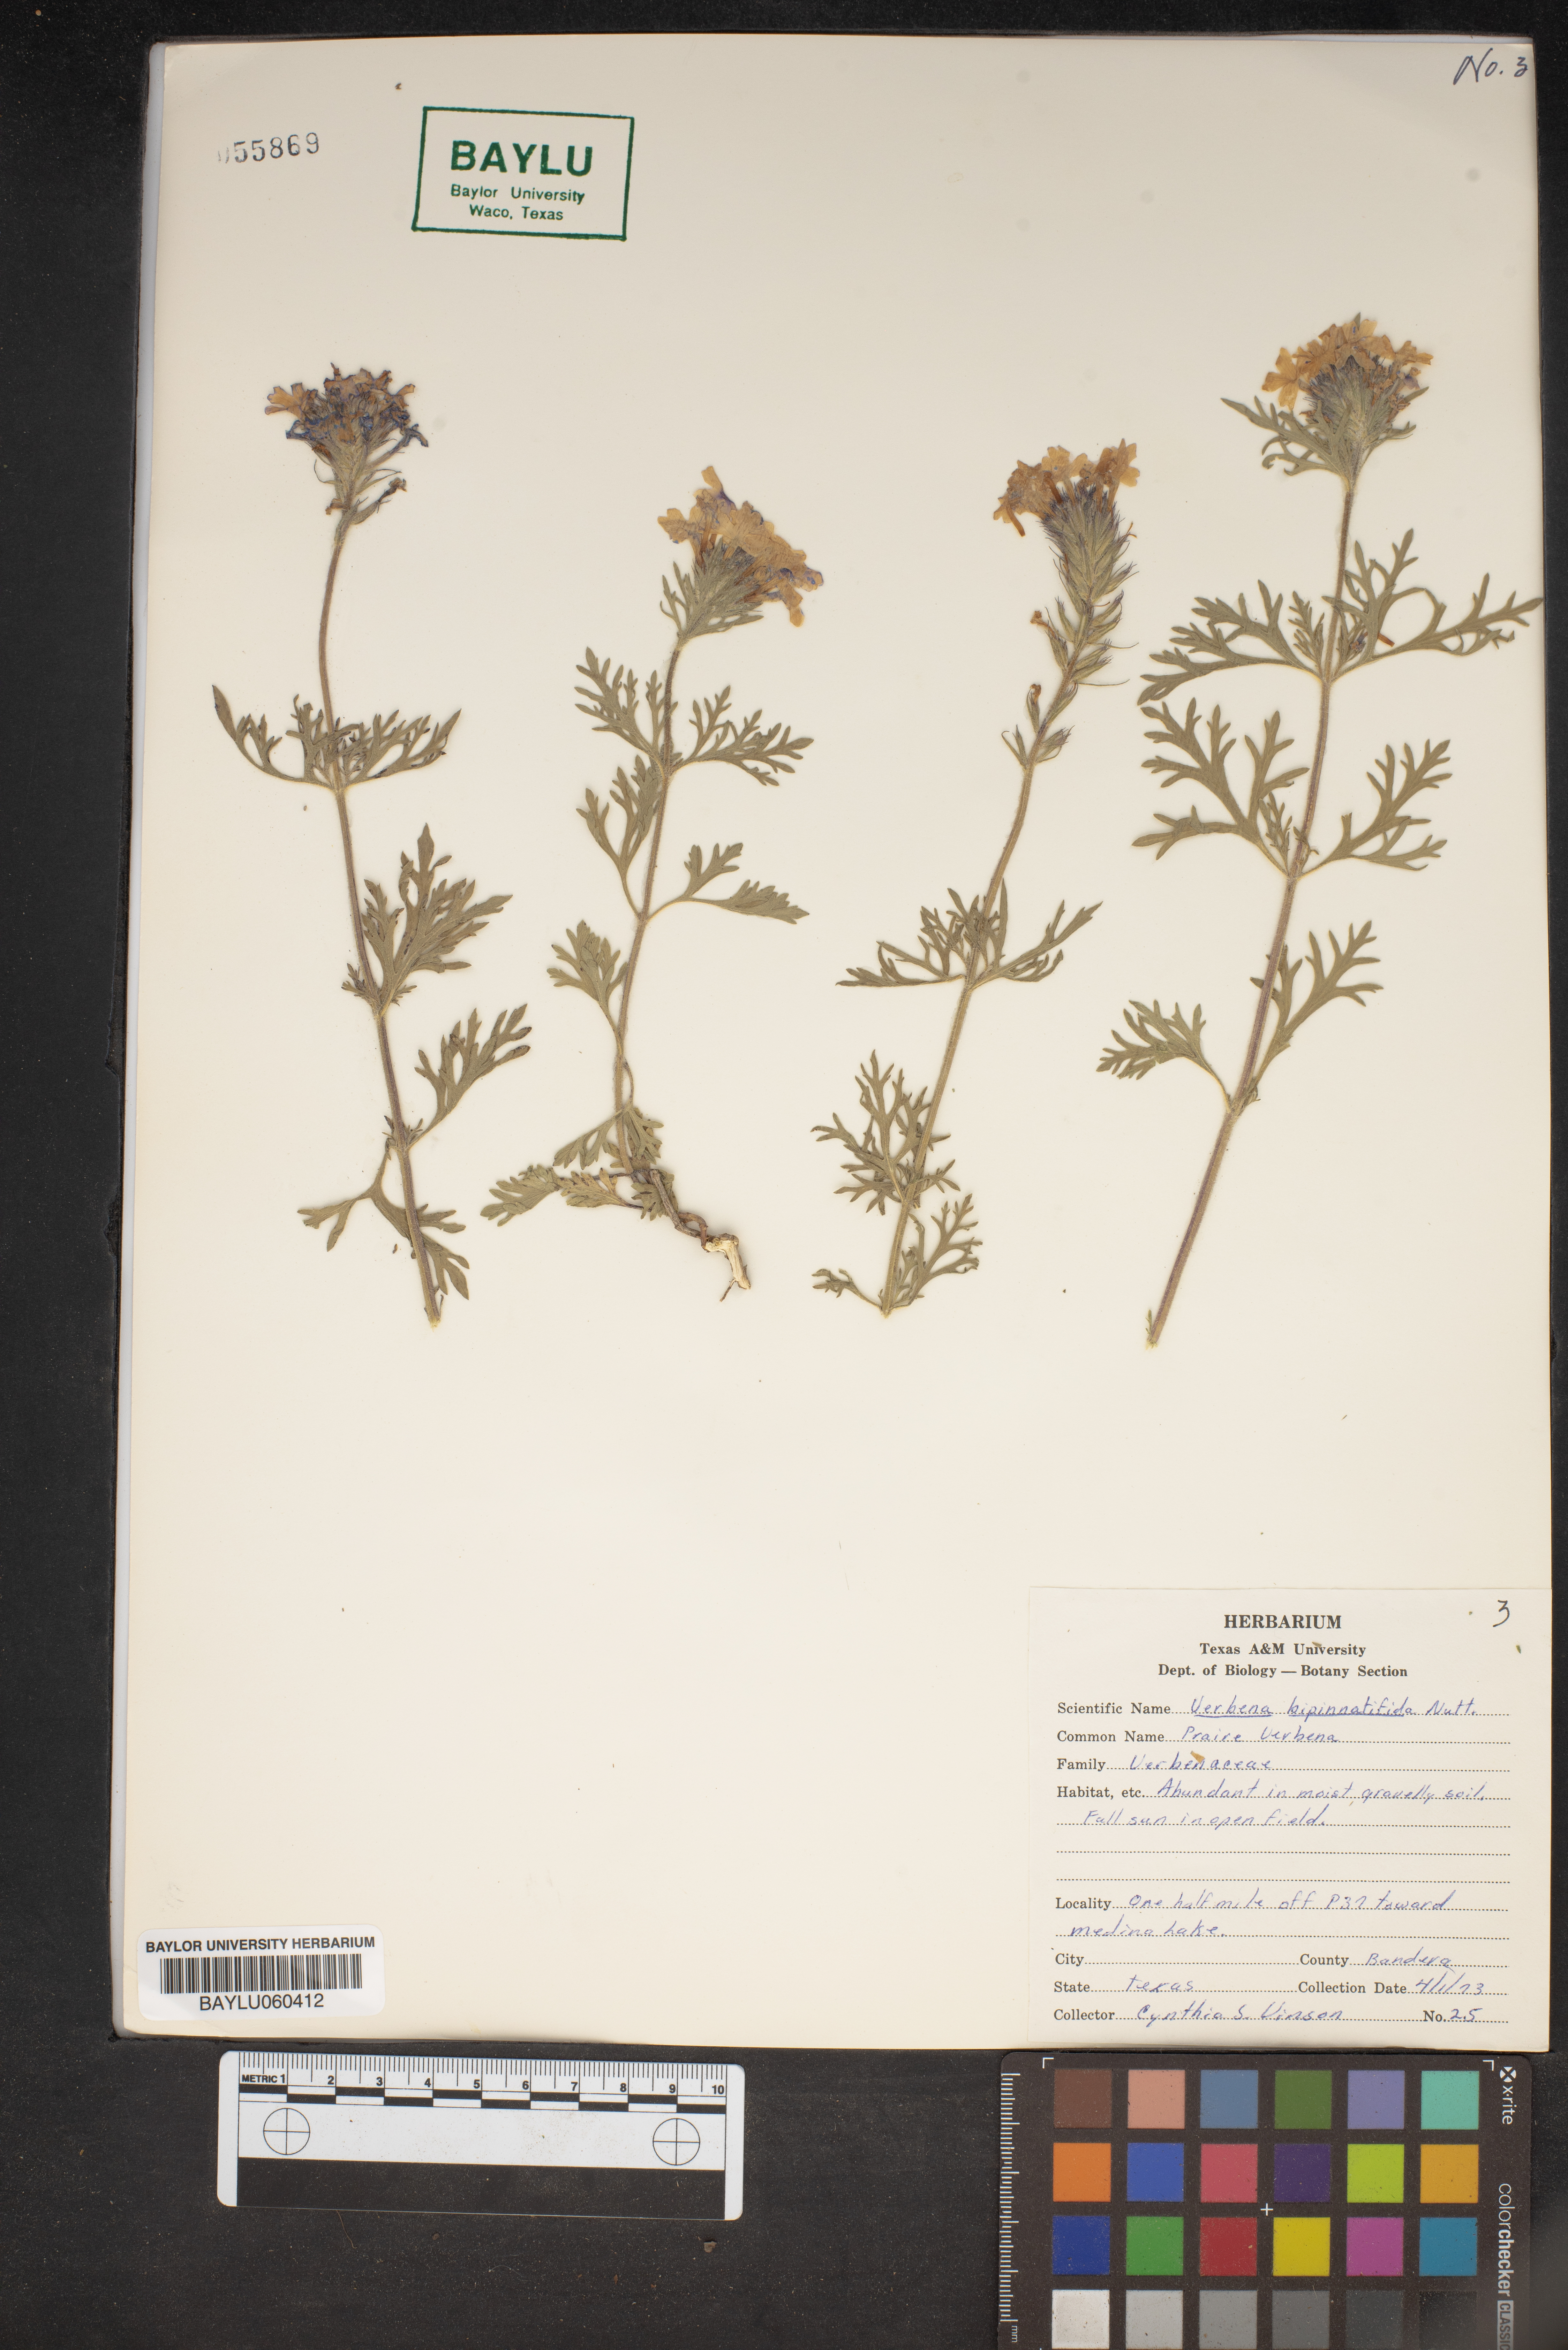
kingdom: Plantae
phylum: Tracheophyta
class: Magnoliopsida
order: Lamiales
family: Verbenaceae
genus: Verbena
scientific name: Verbena bipinnatifida
